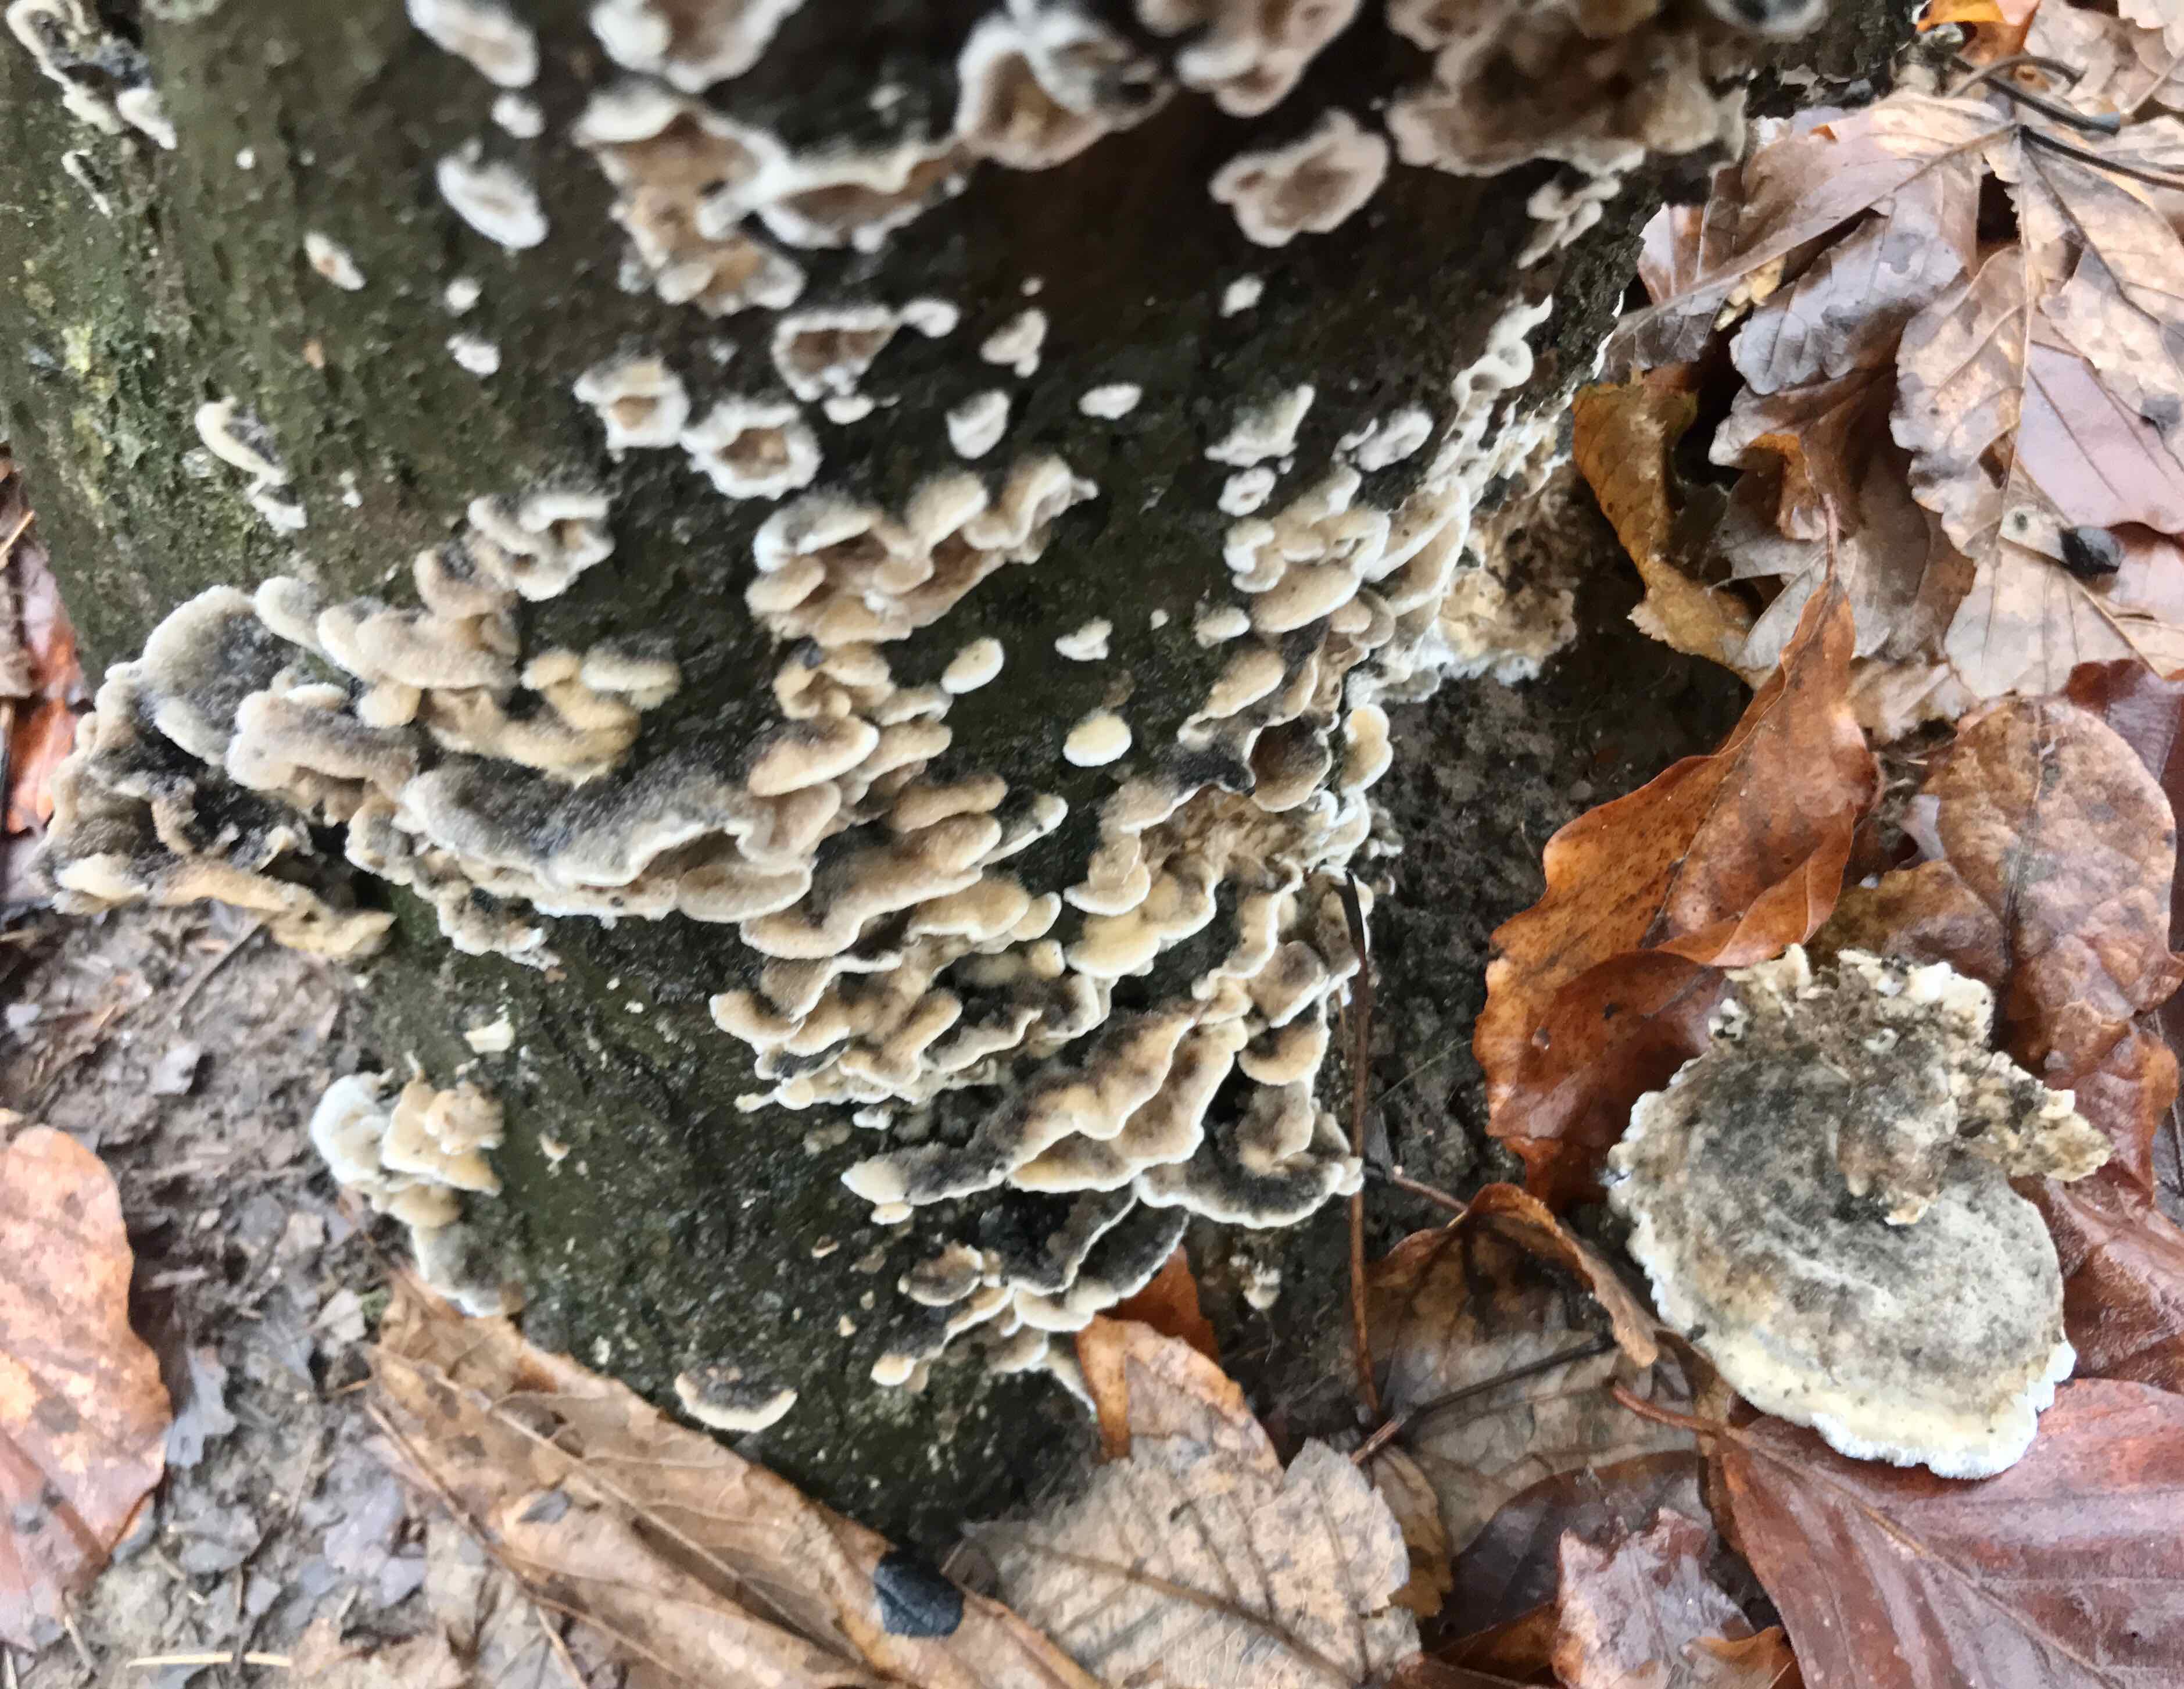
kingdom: Fungi
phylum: Basidiomycota
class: Agaricomycetes
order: Polyporales
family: Phanerochaetaceae
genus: Bjerkandera
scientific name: Bjerkandera adusta
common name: sveden sodporesvamp
